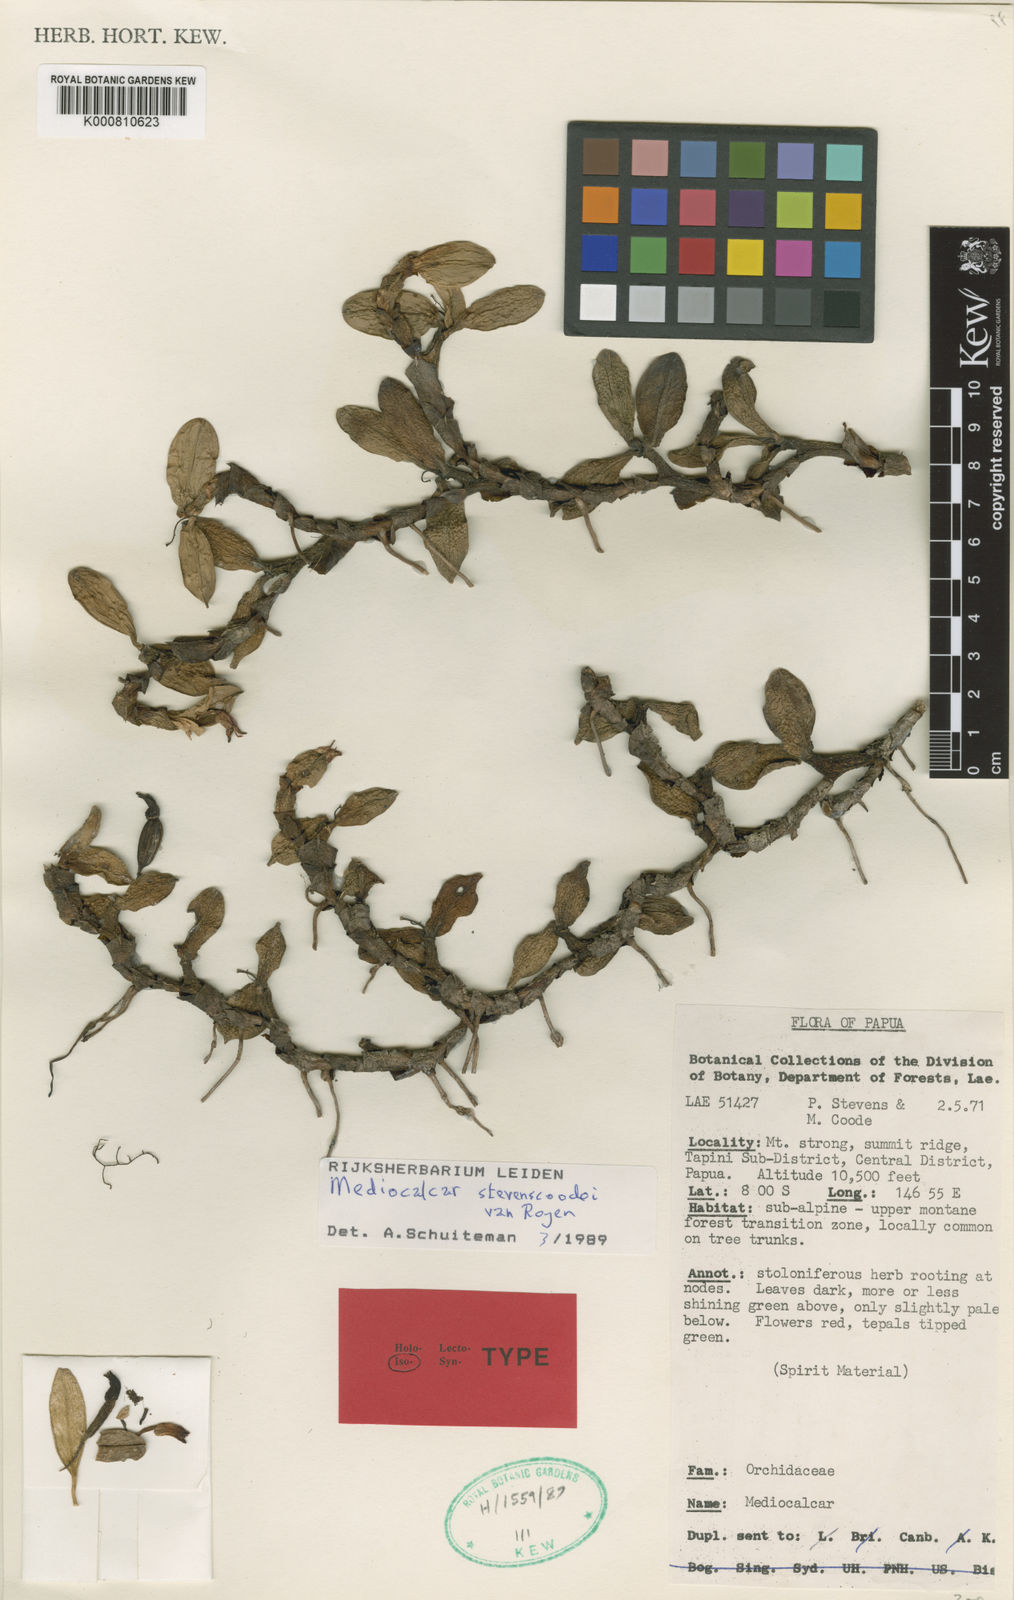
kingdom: Plantae
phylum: Tracheophyta
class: Liliopsida
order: Asparagales
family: Orchidaceae
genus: Mediocalcar
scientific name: Mediocalcar stevenscoodei
